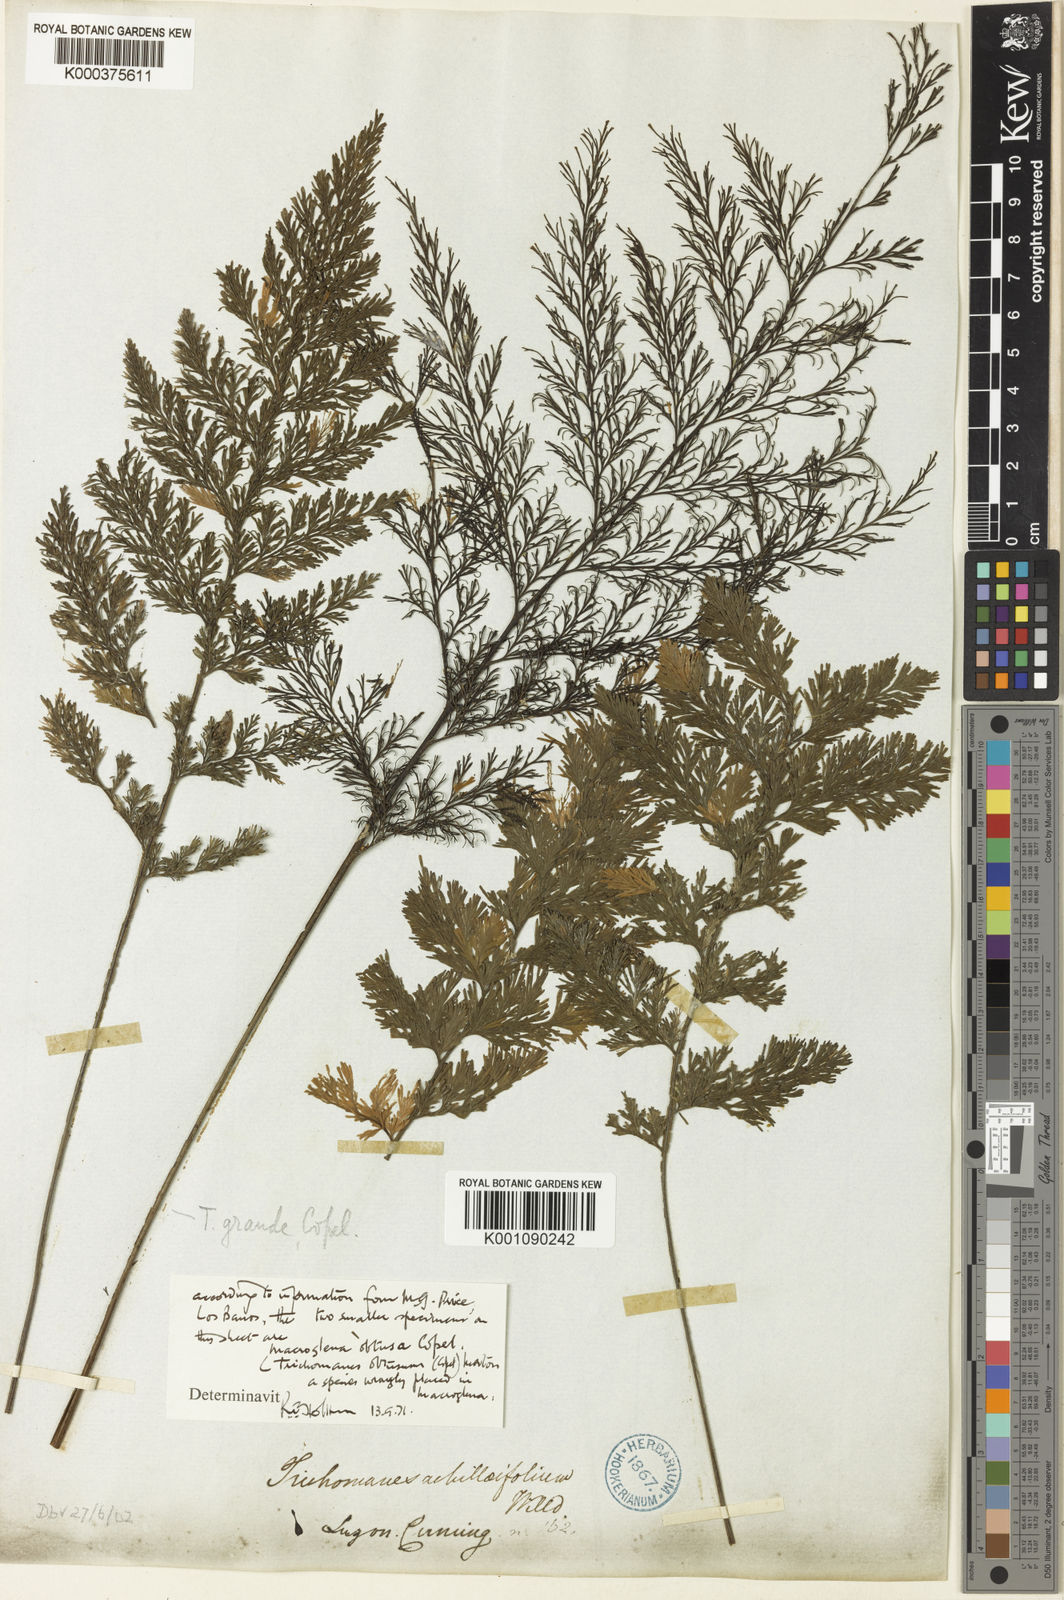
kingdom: Plantae
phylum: Tracheophyta
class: Polypodiopsida
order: Hymenophyllales
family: Hymenophyllaceae
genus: Crepidomanes
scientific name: Crepidomanes grande
